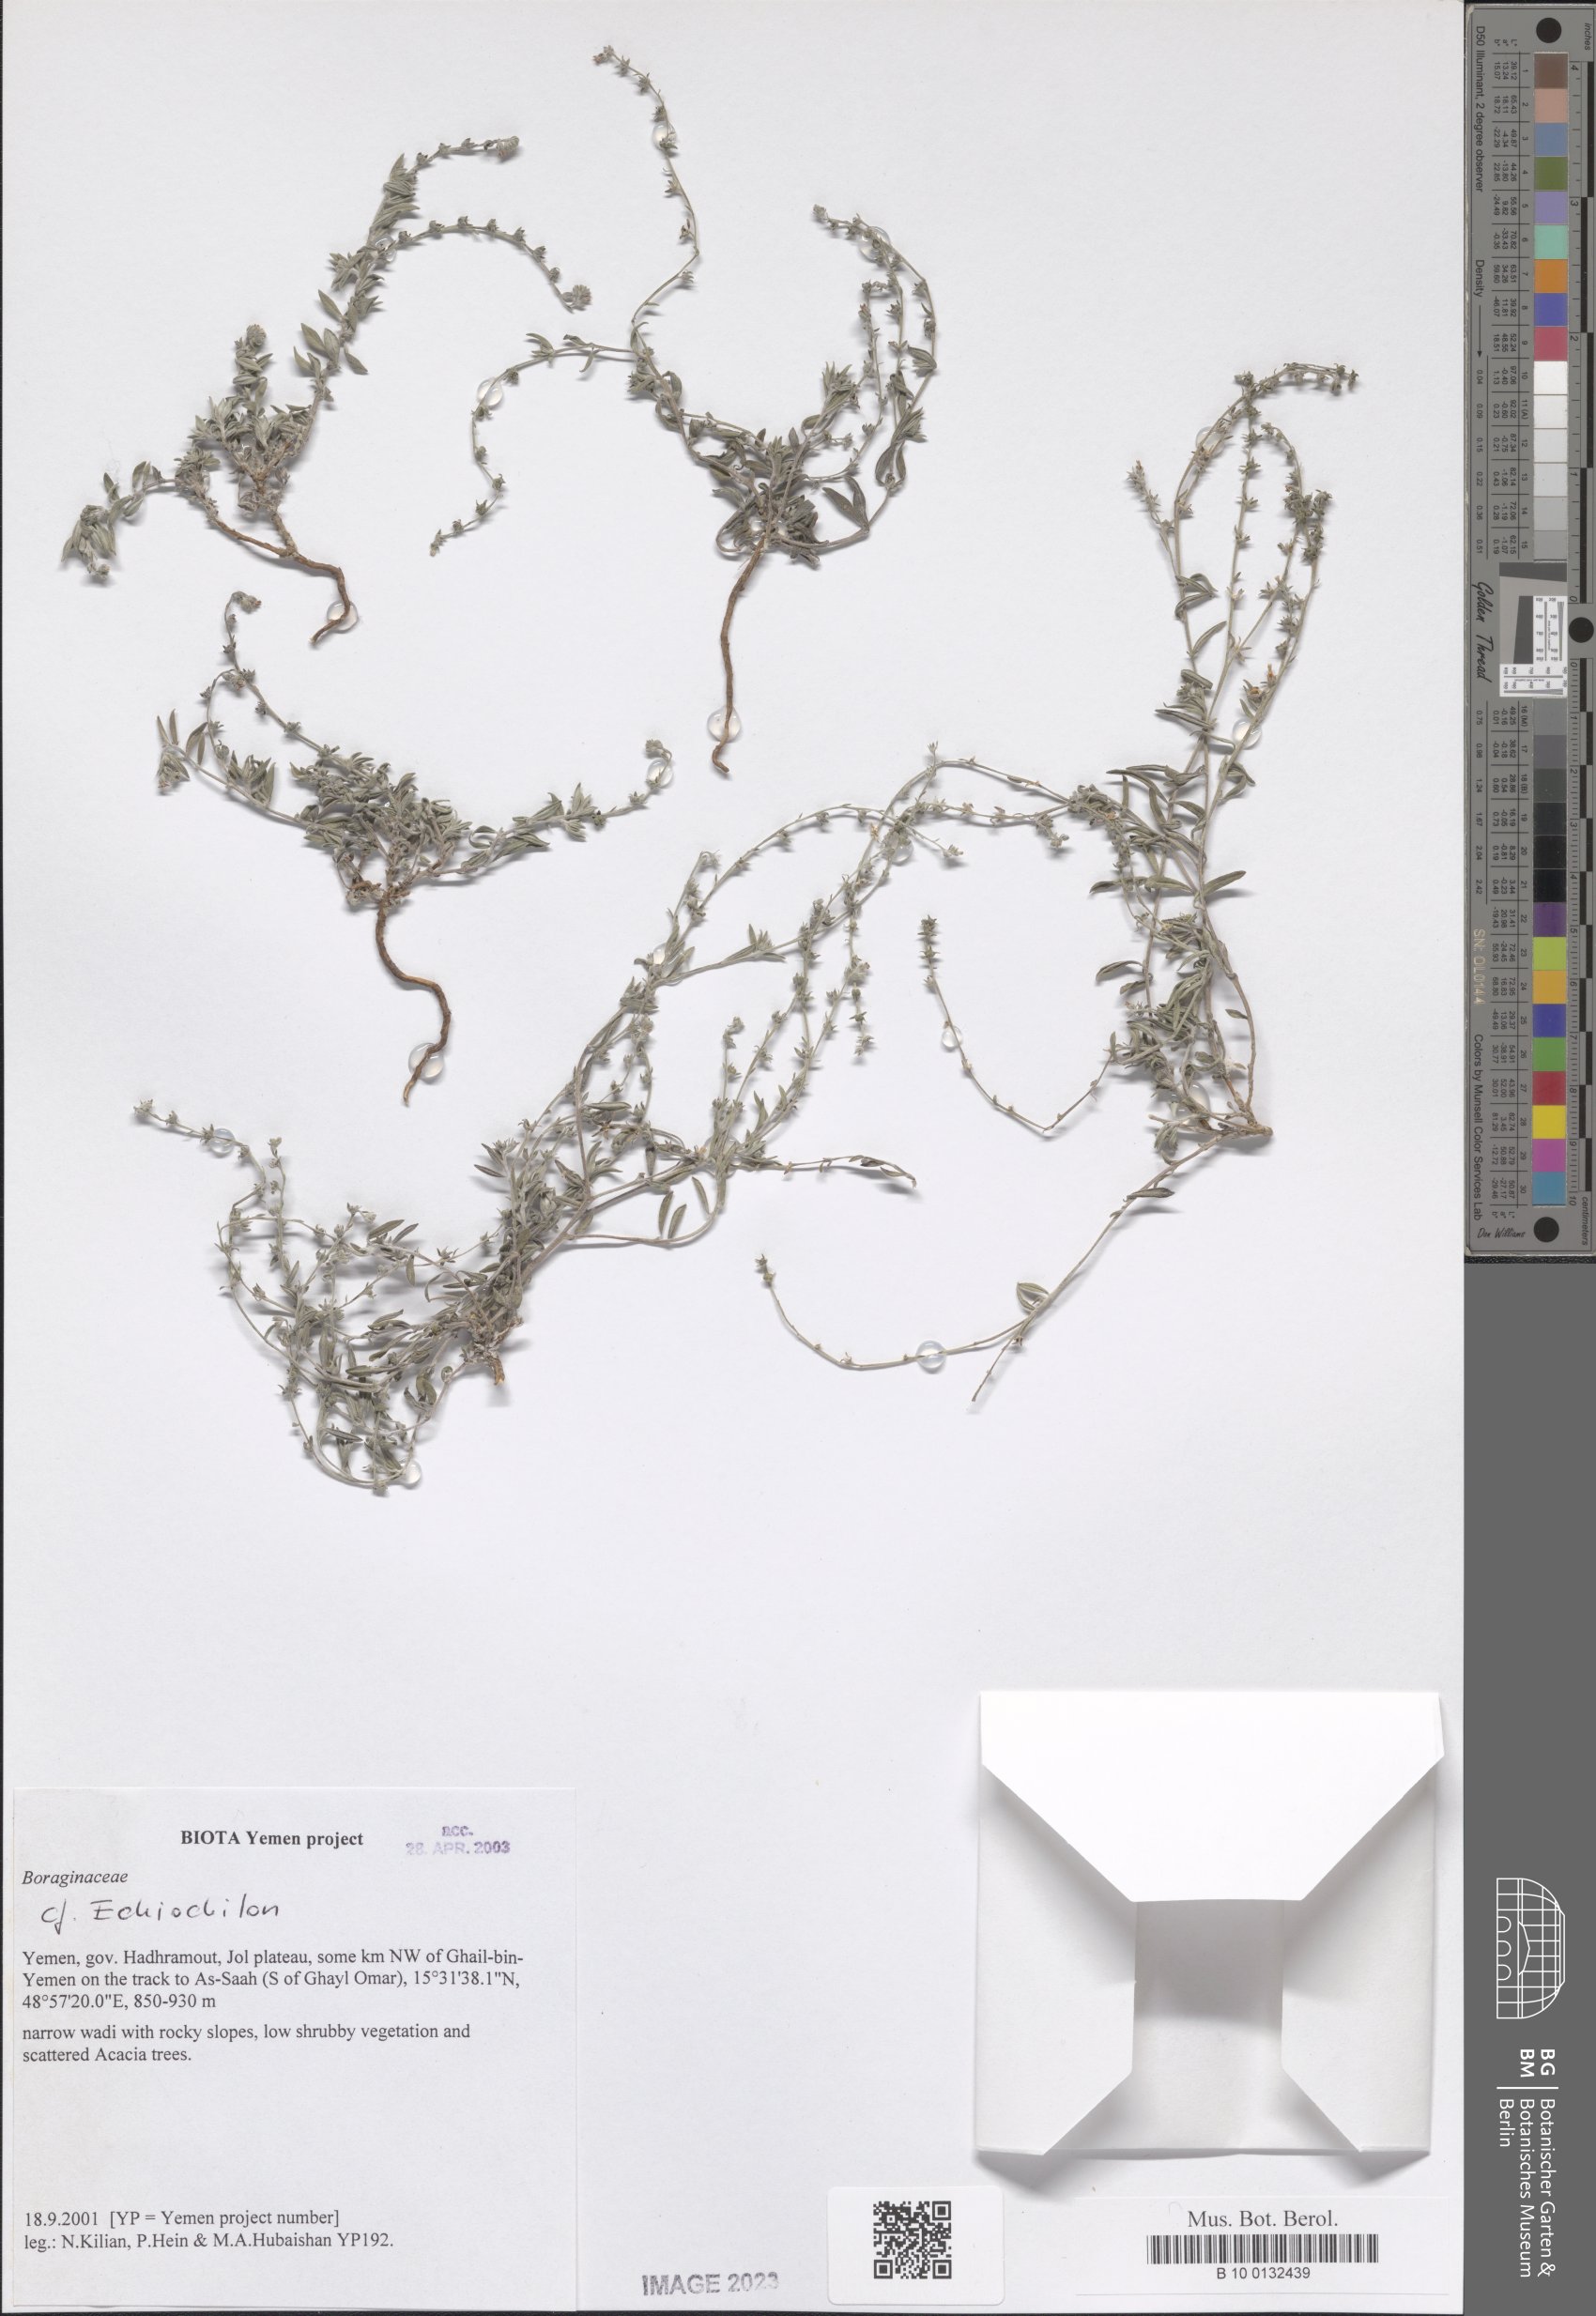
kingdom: Plantae
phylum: Tracheophyta
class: Magnoliopsida
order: Boraginales
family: Boraginaceae
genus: Echiochilon
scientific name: Echiochilon
